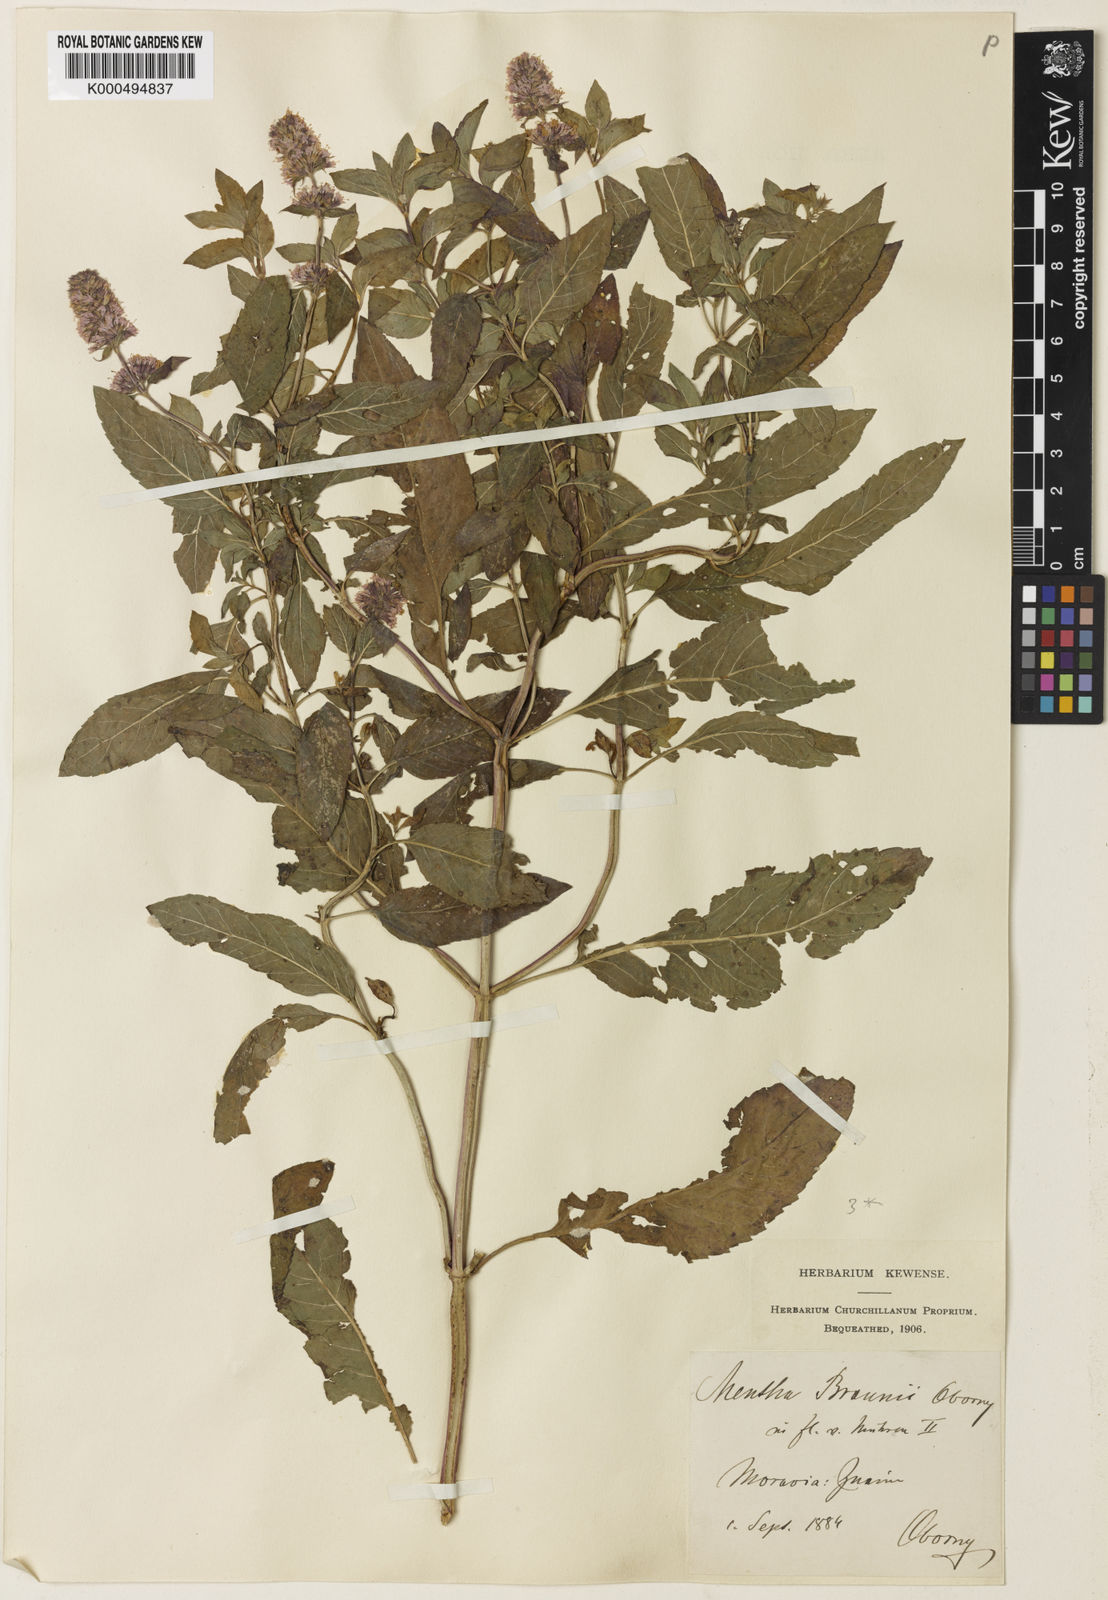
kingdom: Plantae
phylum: Tracheophyta
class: Magnoliopsida
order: Lamiales
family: Lamiaceae
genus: Mentha
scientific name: Mentha piperita
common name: Peppermint
